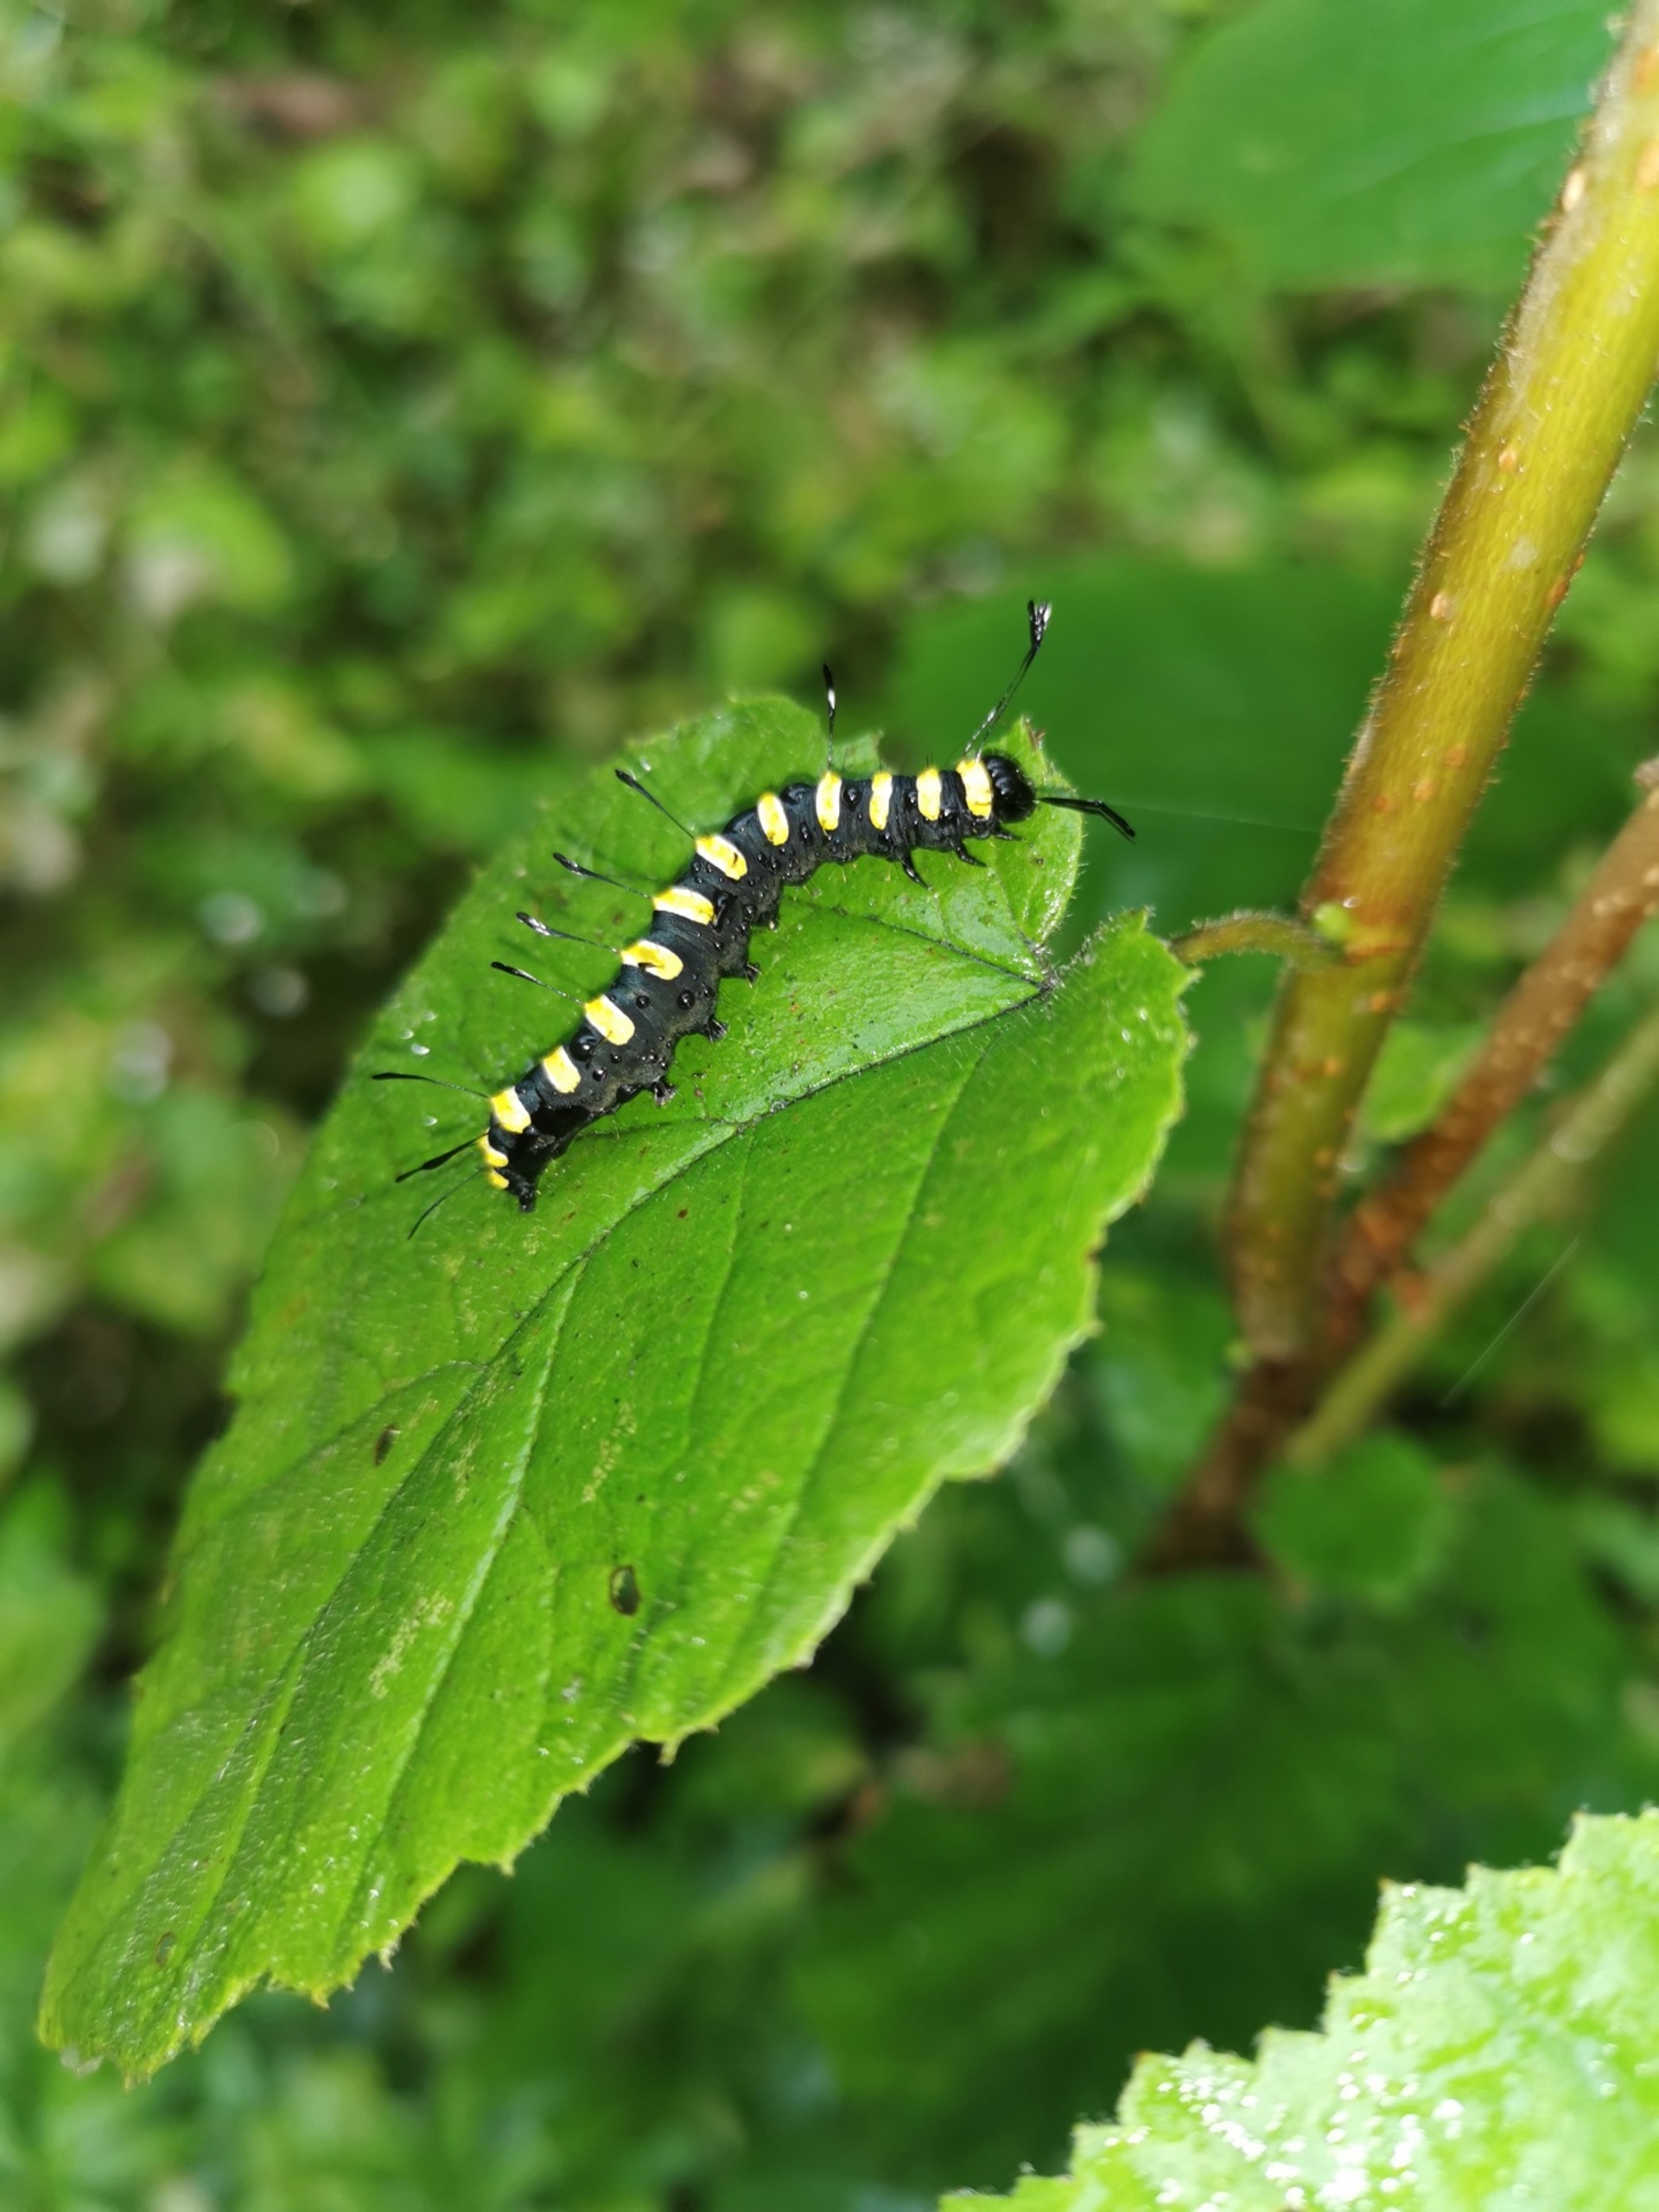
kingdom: Animalia
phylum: Arthropoda
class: Insecta
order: Lepidoptera
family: Noctuidae
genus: Acronicta
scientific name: Acronicta alni
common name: Kølleugle
